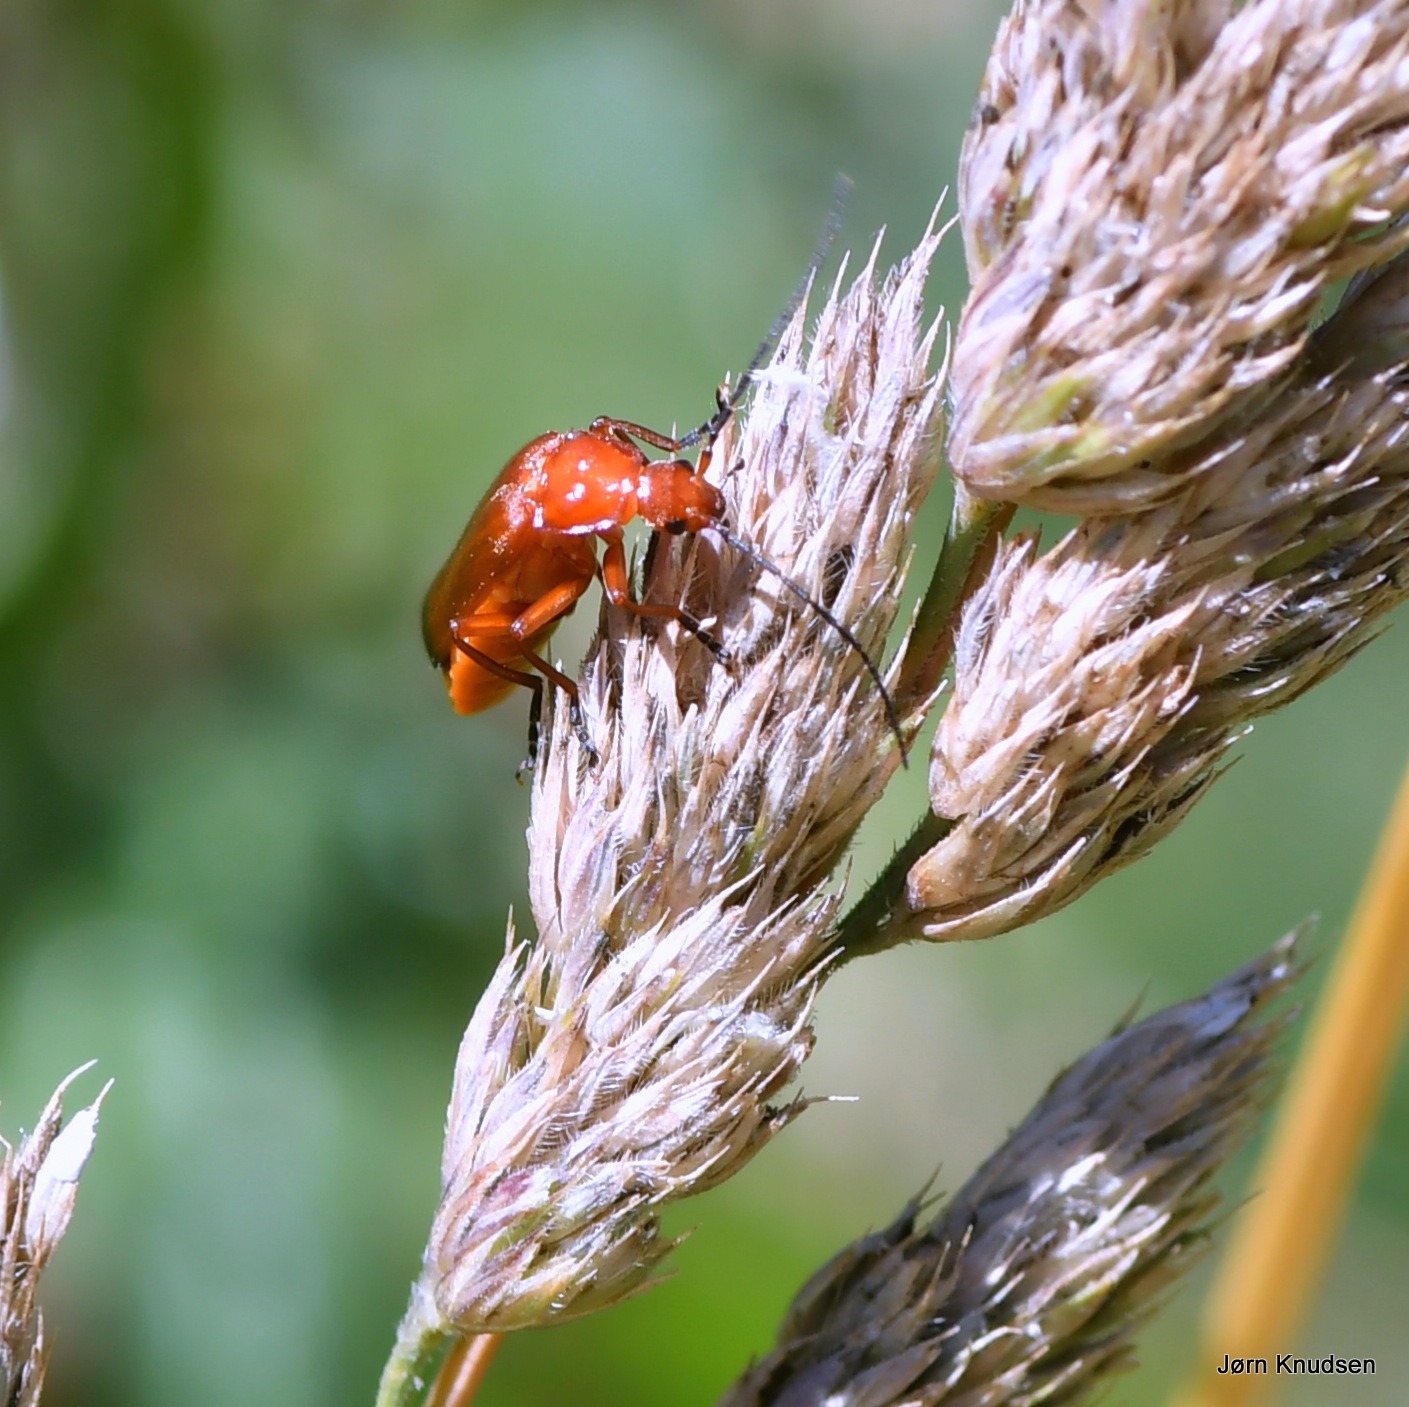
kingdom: Animalia
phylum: Arthropoda
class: Insecta
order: Coleoptera
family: Cantharidae
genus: Rhagonycha
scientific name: Rhagonycha fulva
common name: Præstebille
